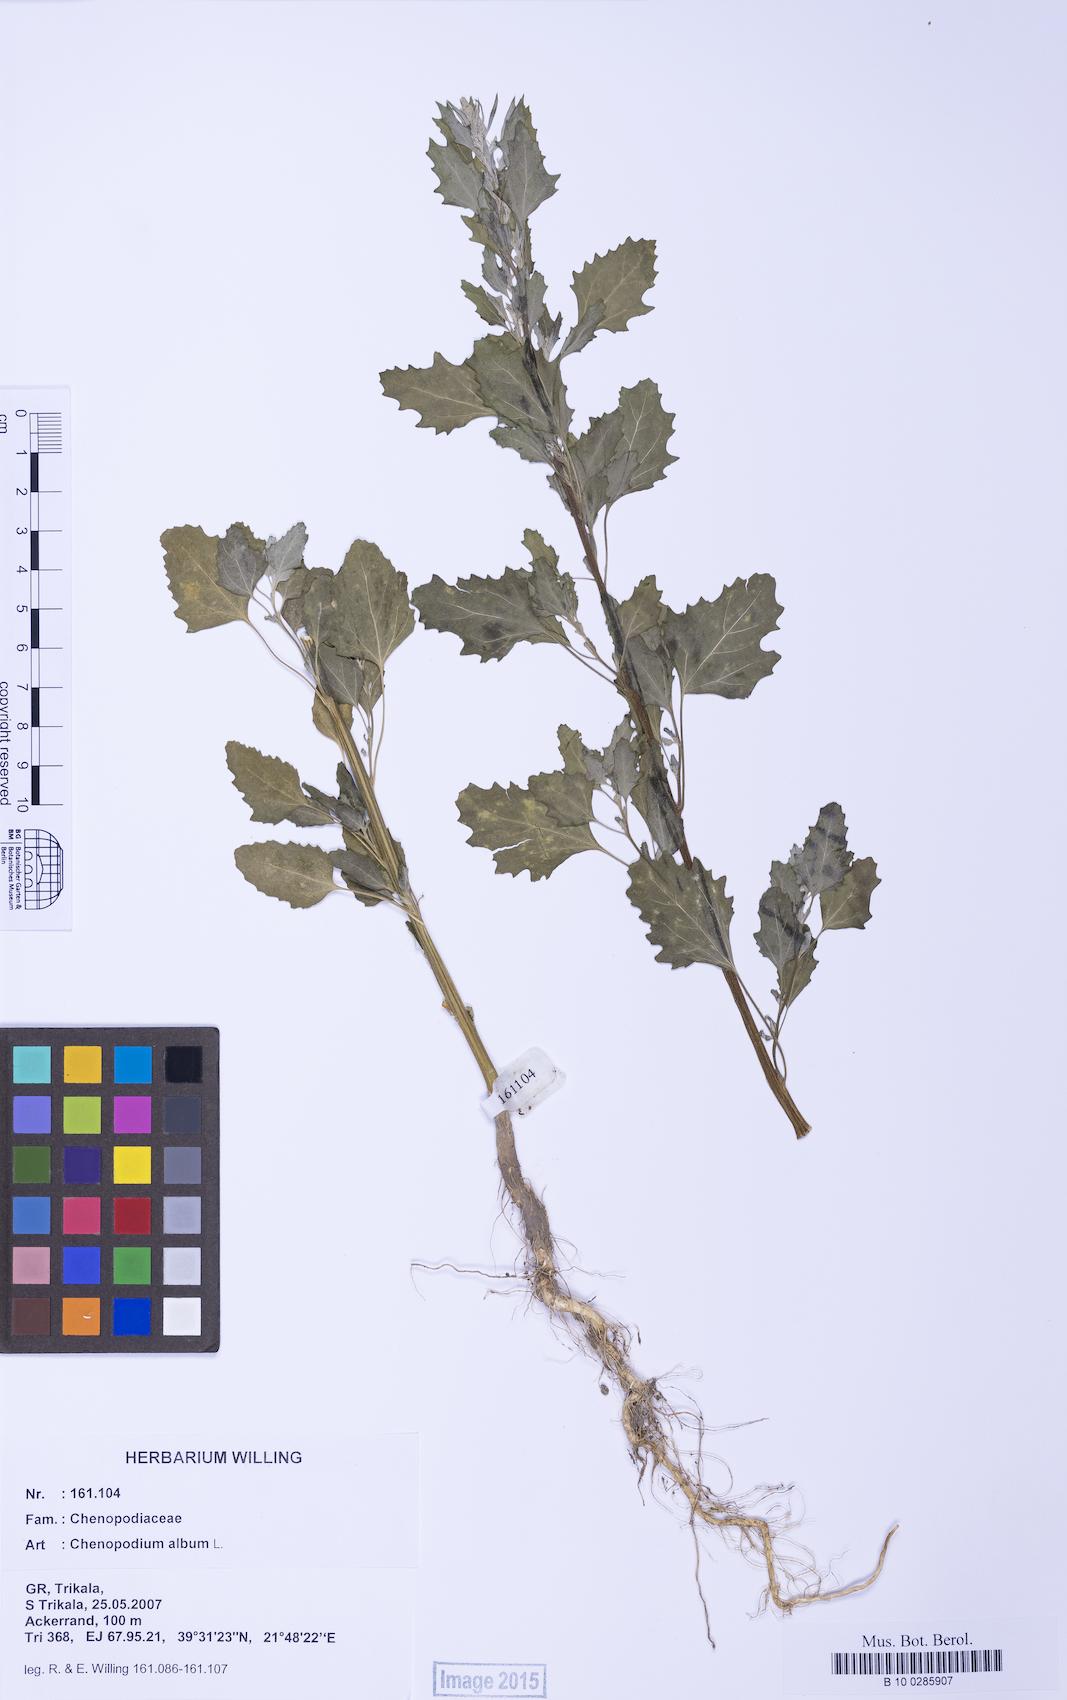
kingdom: Plantae
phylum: Tracheophyta
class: Magnoliopsida
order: Caryophyllales
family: Amaranthaceae
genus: Chenopodium
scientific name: Chenopodium album
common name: Fat-hen
